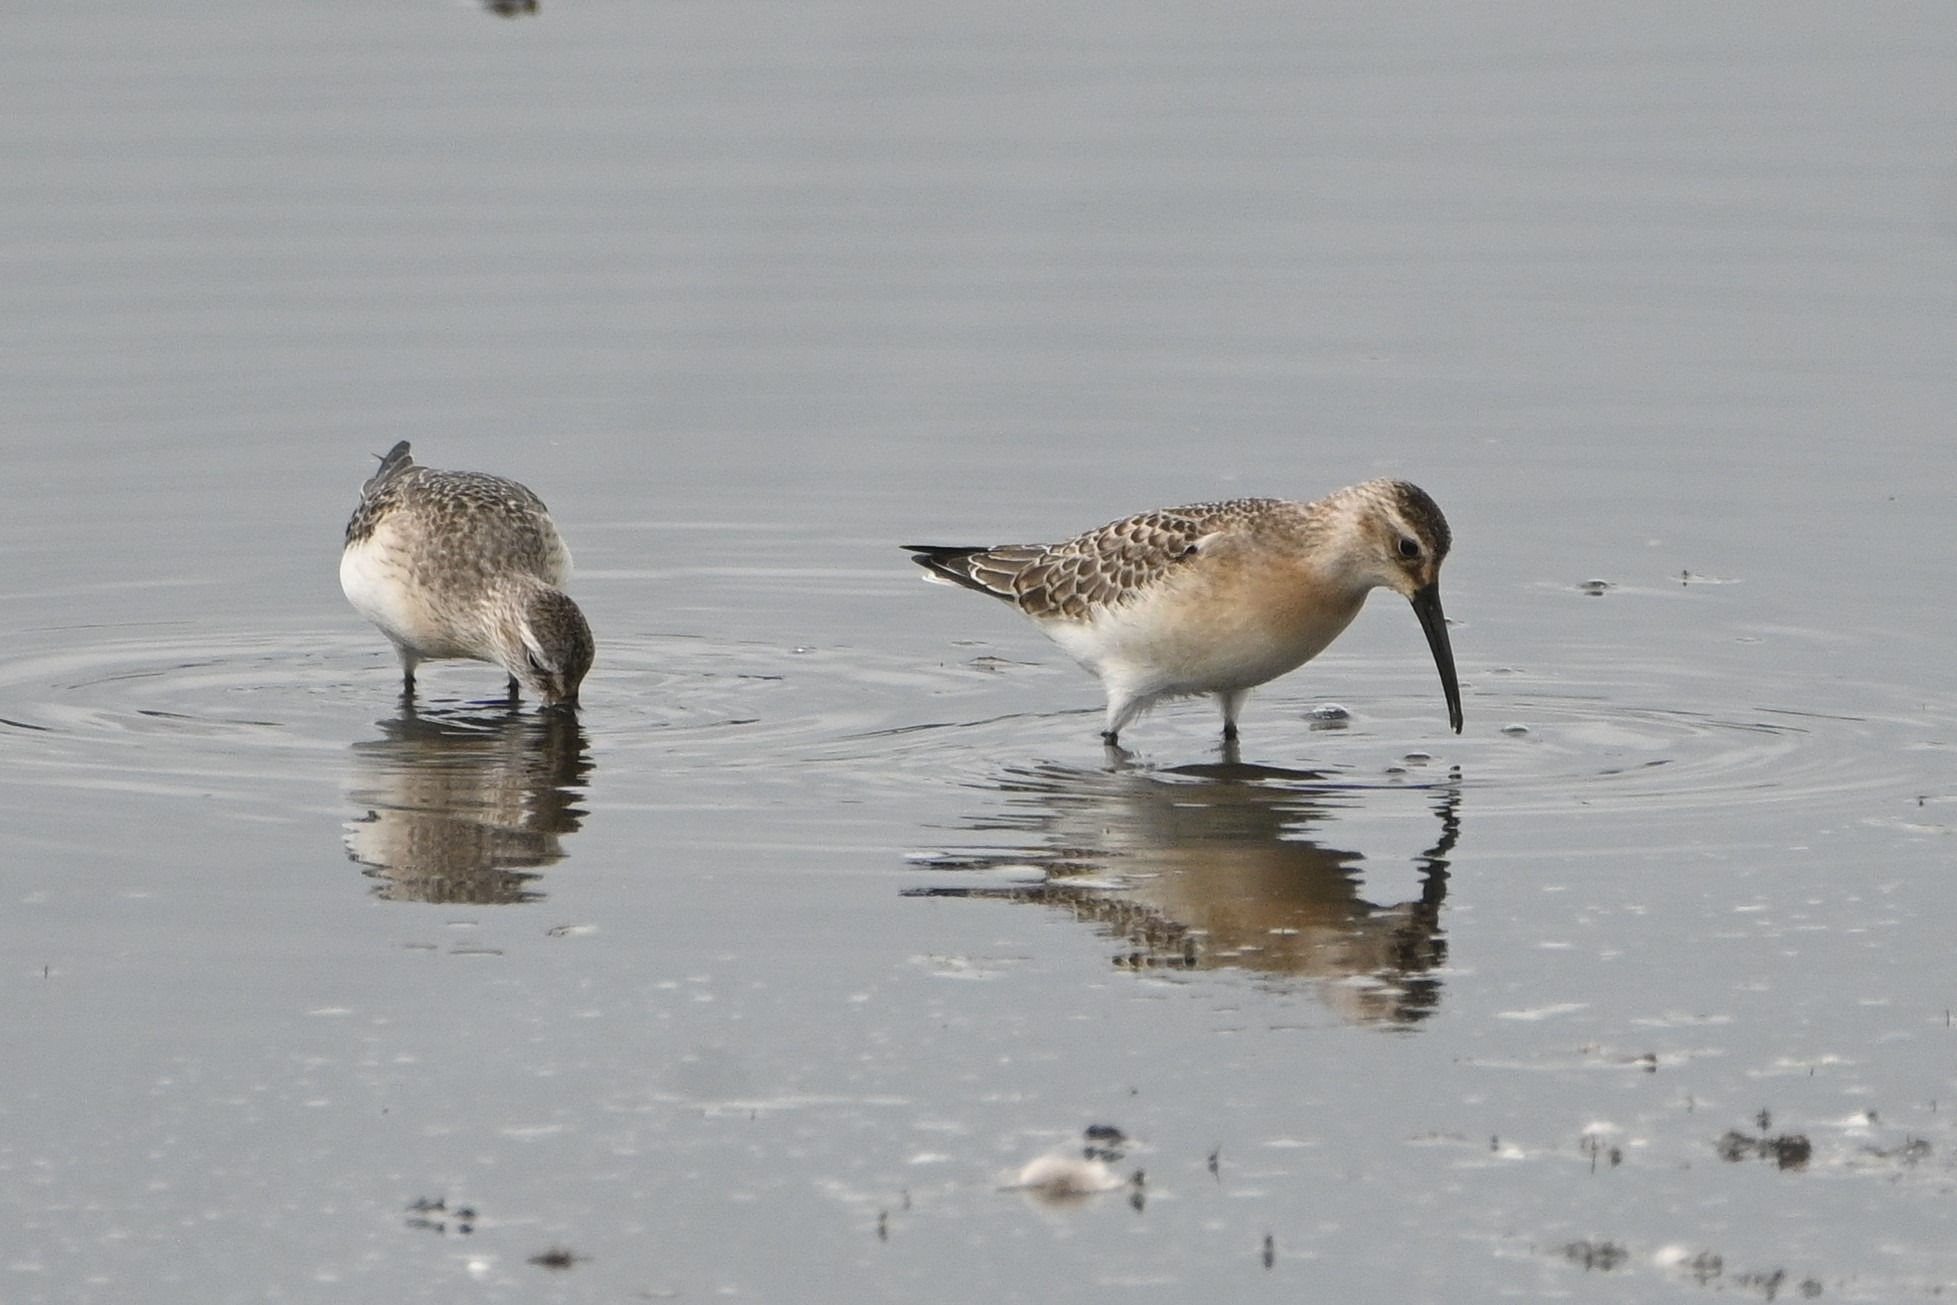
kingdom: Animalia
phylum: Chordata
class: Aves
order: Charadriiformes
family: Scolopacidae
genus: Calidris
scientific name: Calidris ferruginea
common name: Krumnæbbet ryle
